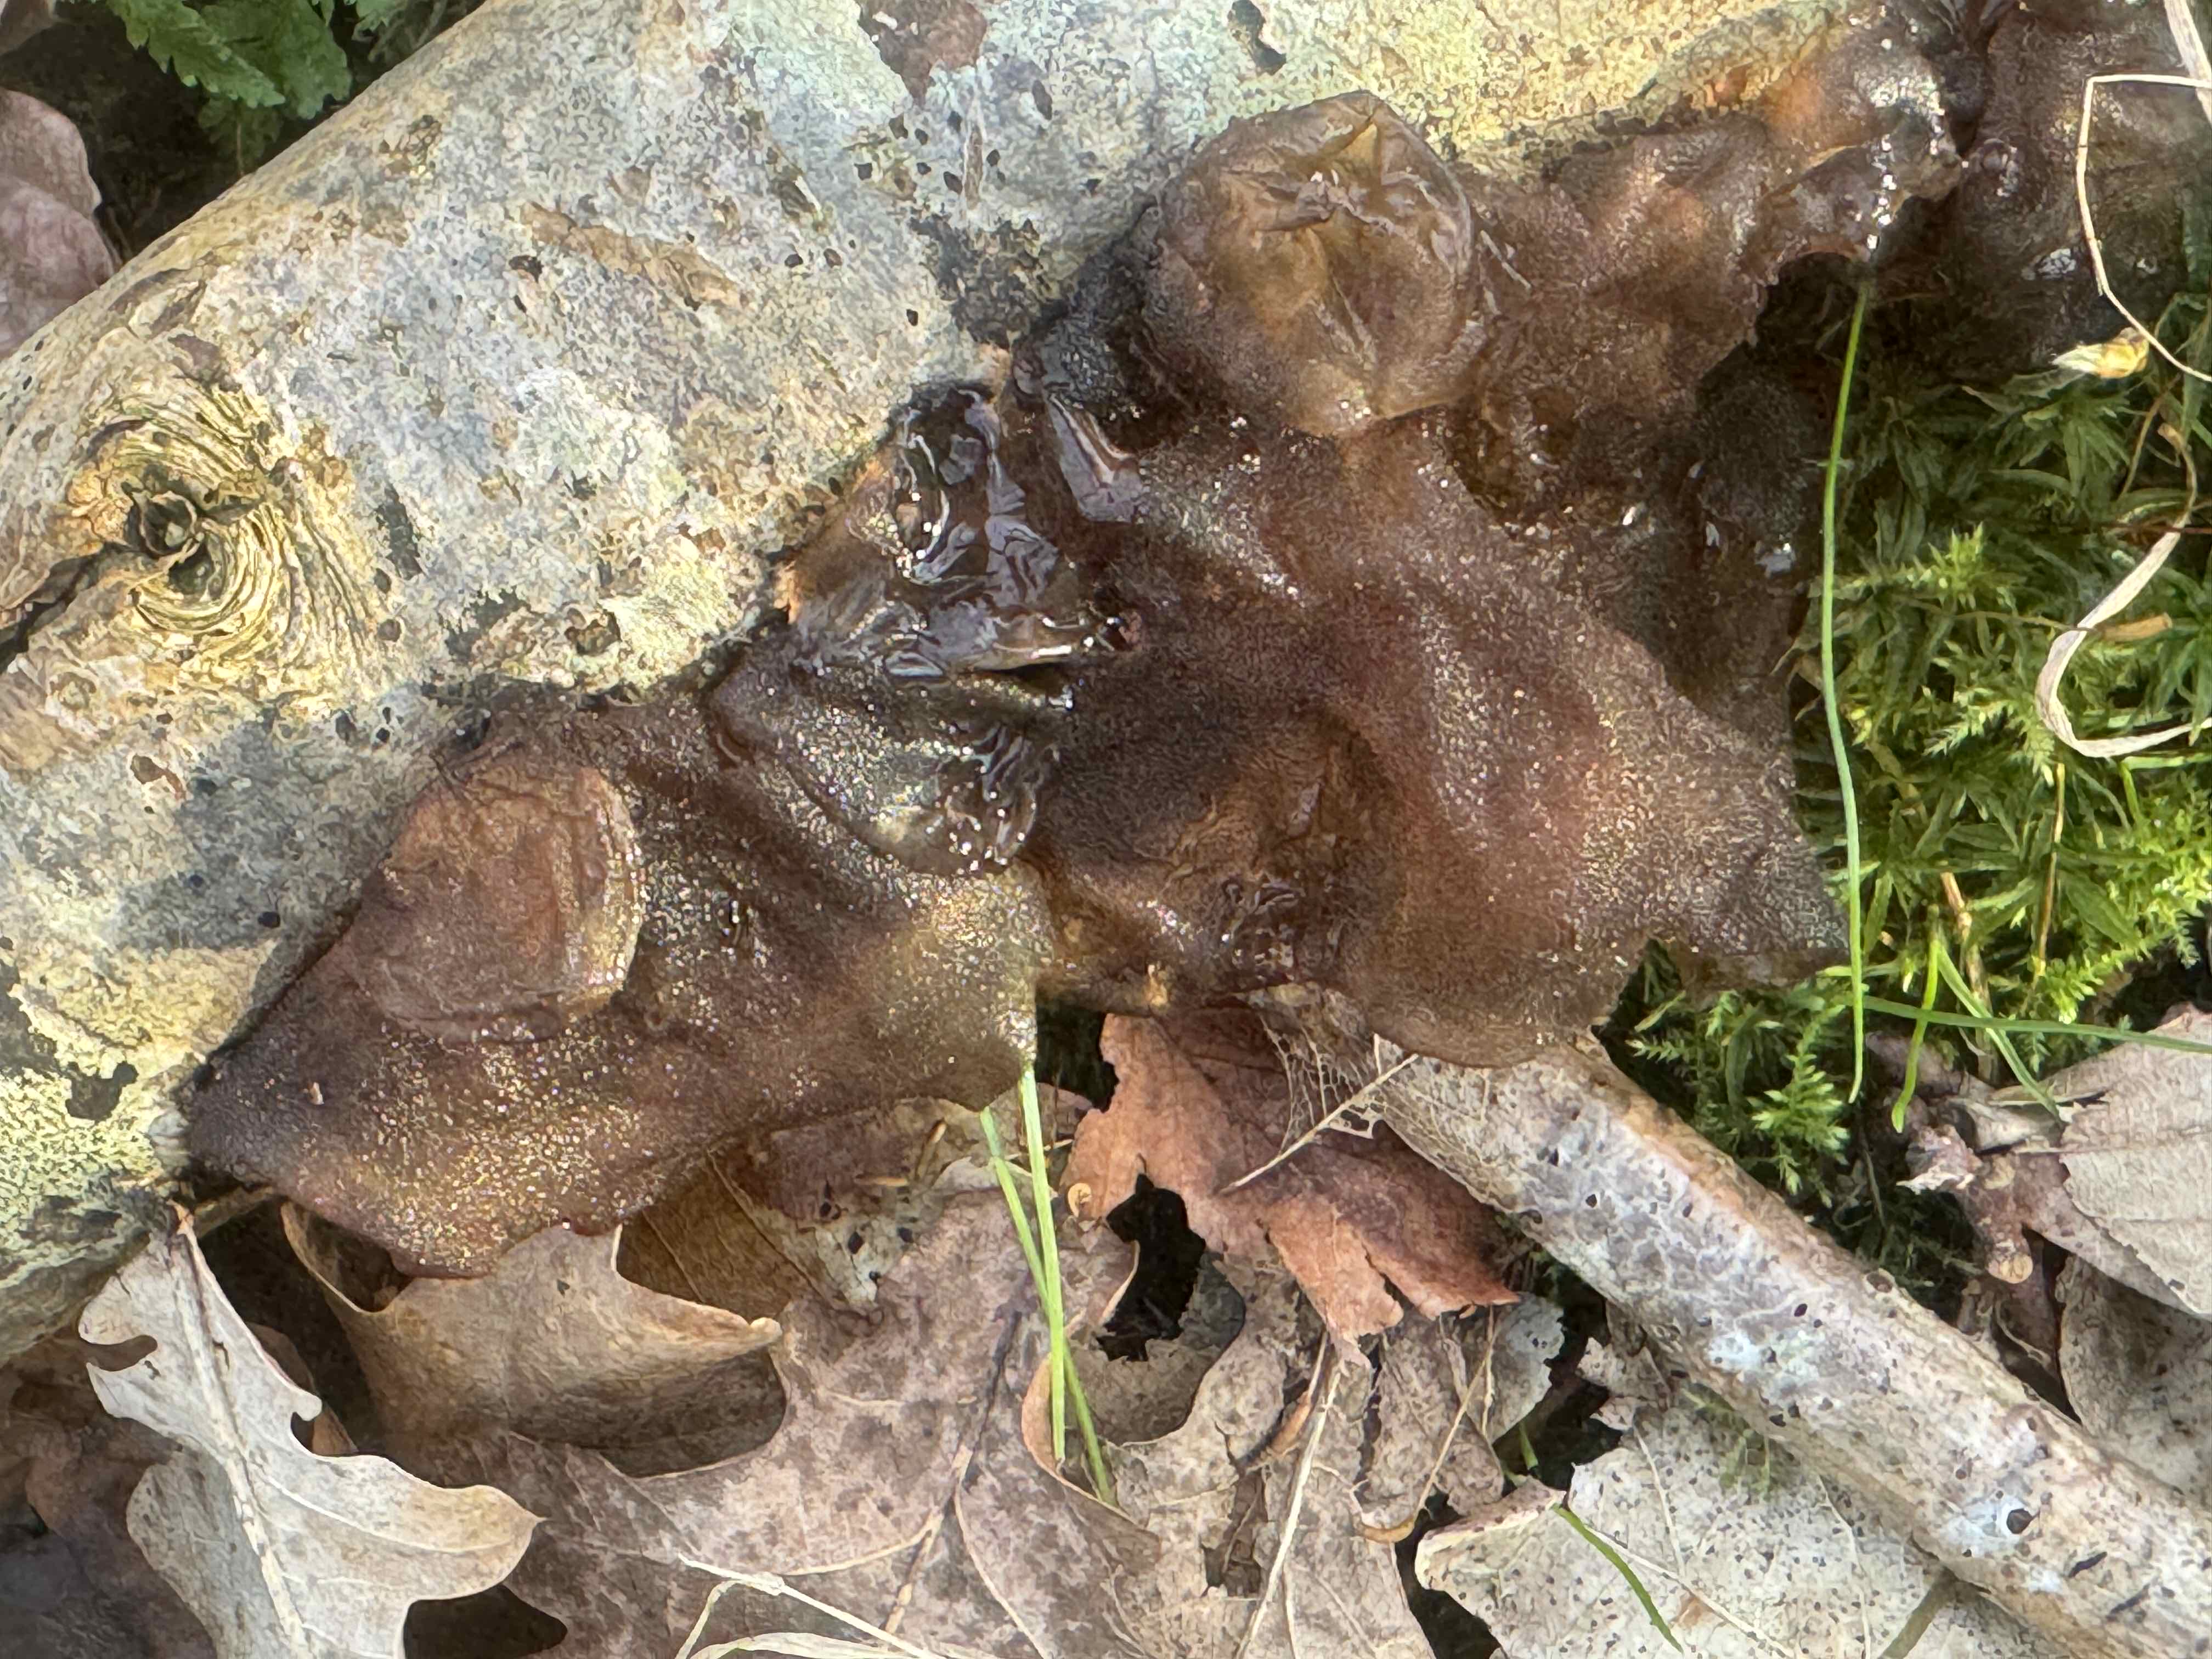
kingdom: Fungi
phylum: Basidiomycota
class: Agaricomycetes
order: Auriculariales
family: Auriculariaceae
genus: Exidia
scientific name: Exidia glandulosa
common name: ege-bævretop
